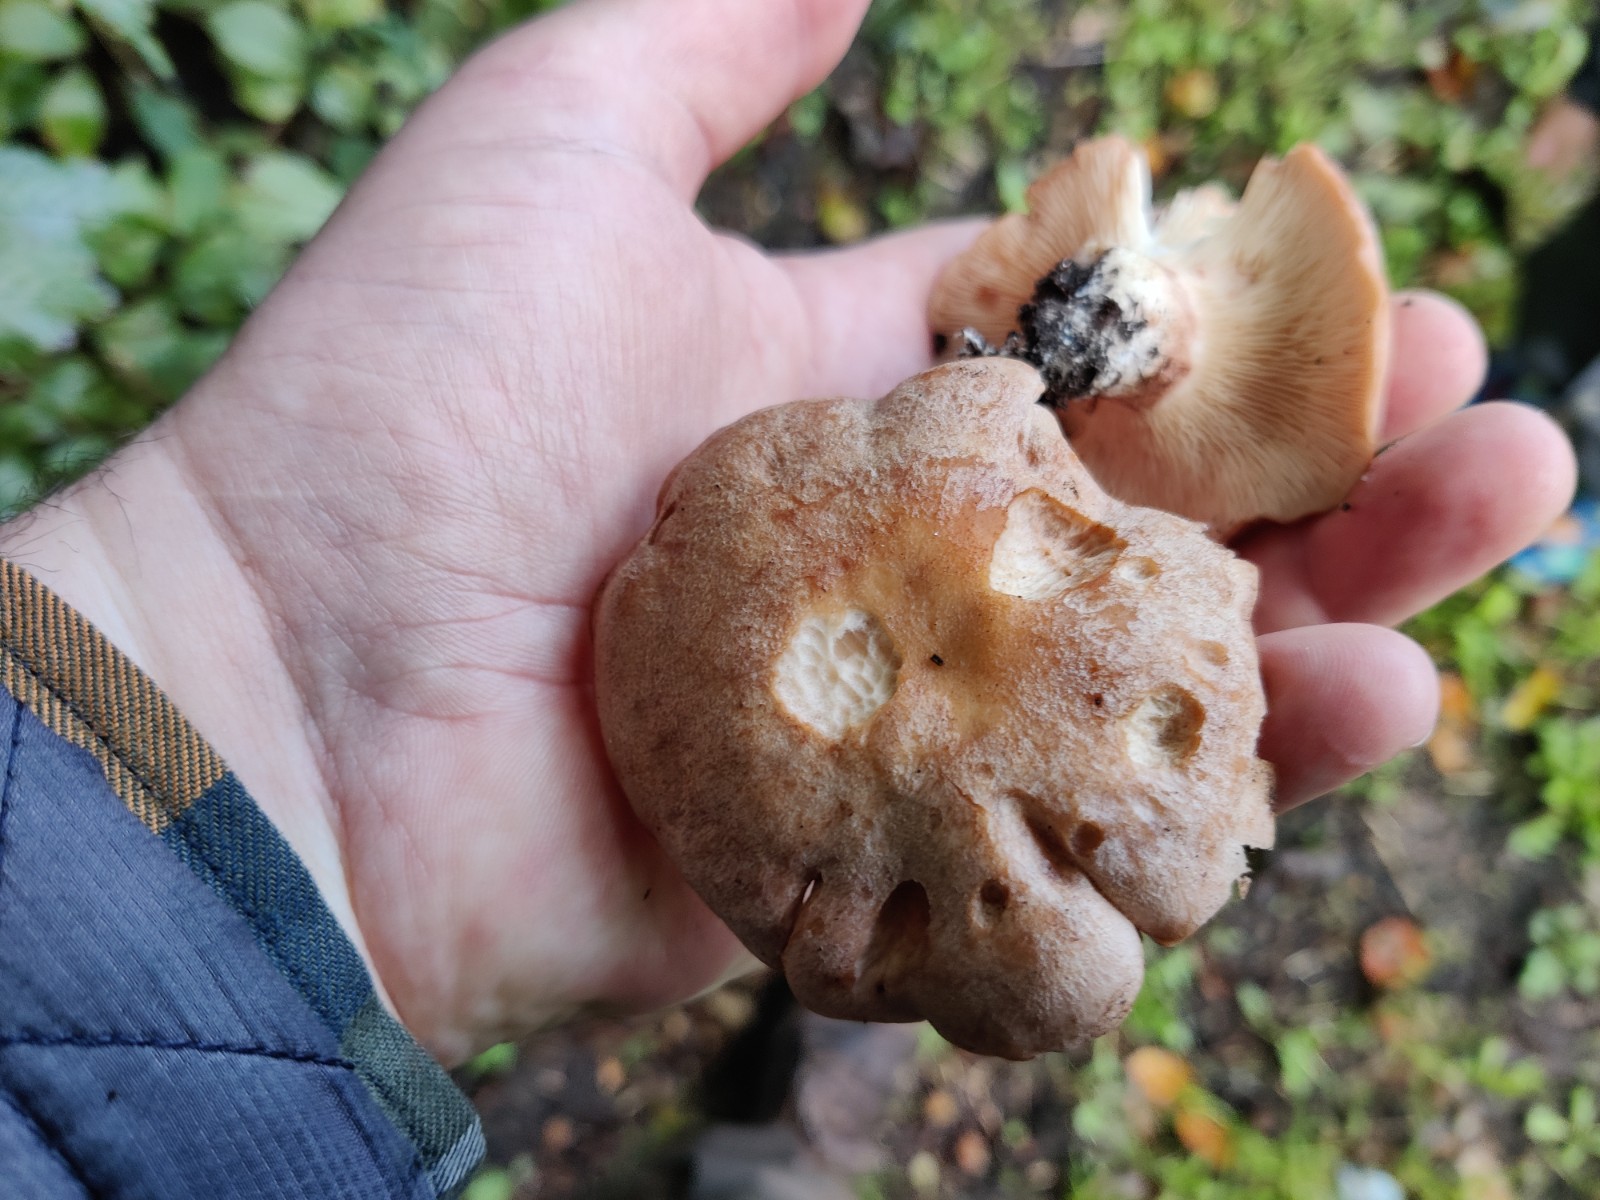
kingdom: Fungi
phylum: Basidiomycota
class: Agaricomycetes
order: Agaricales
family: Entolomataceae
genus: Clitopilus
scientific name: Clitopilus geminus
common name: kødfarvet troldhat
